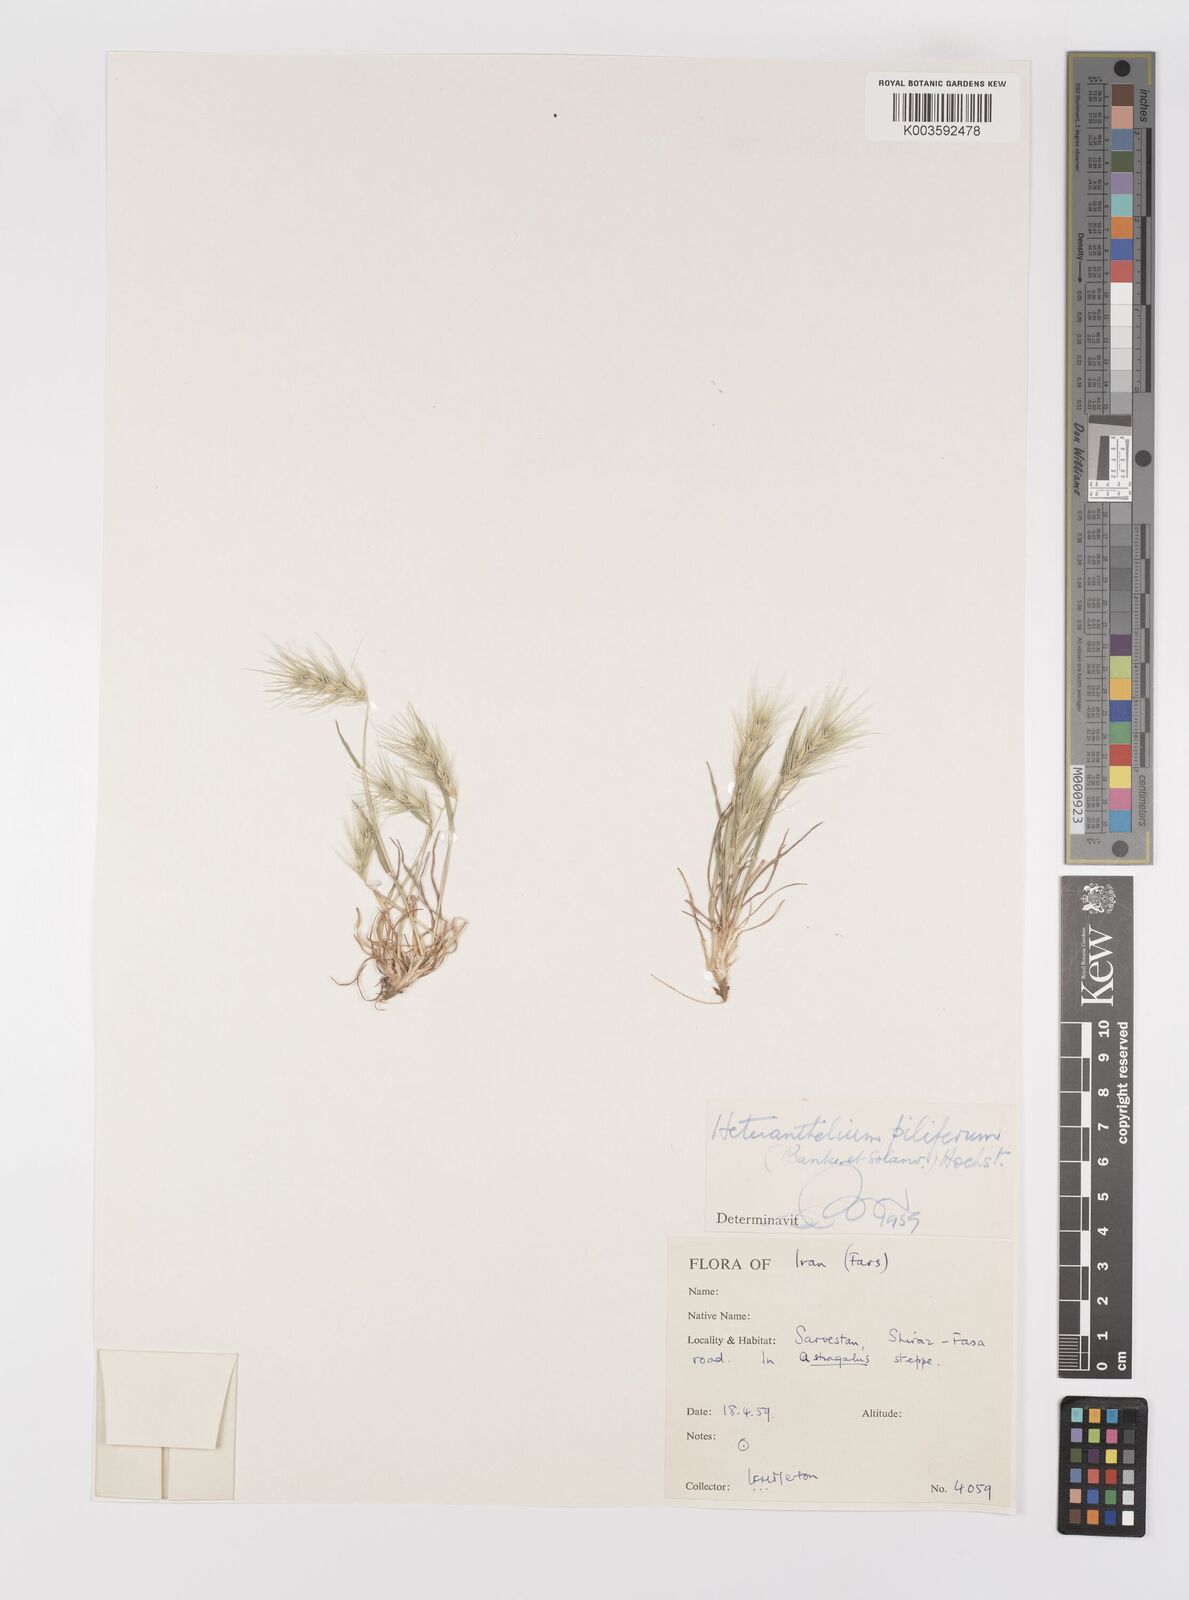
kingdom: Plantae
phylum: Tracheophyta
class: Liliopsida
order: Poales
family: Poaceae
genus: Heteranthelium
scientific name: Heteranthelium piliferum
